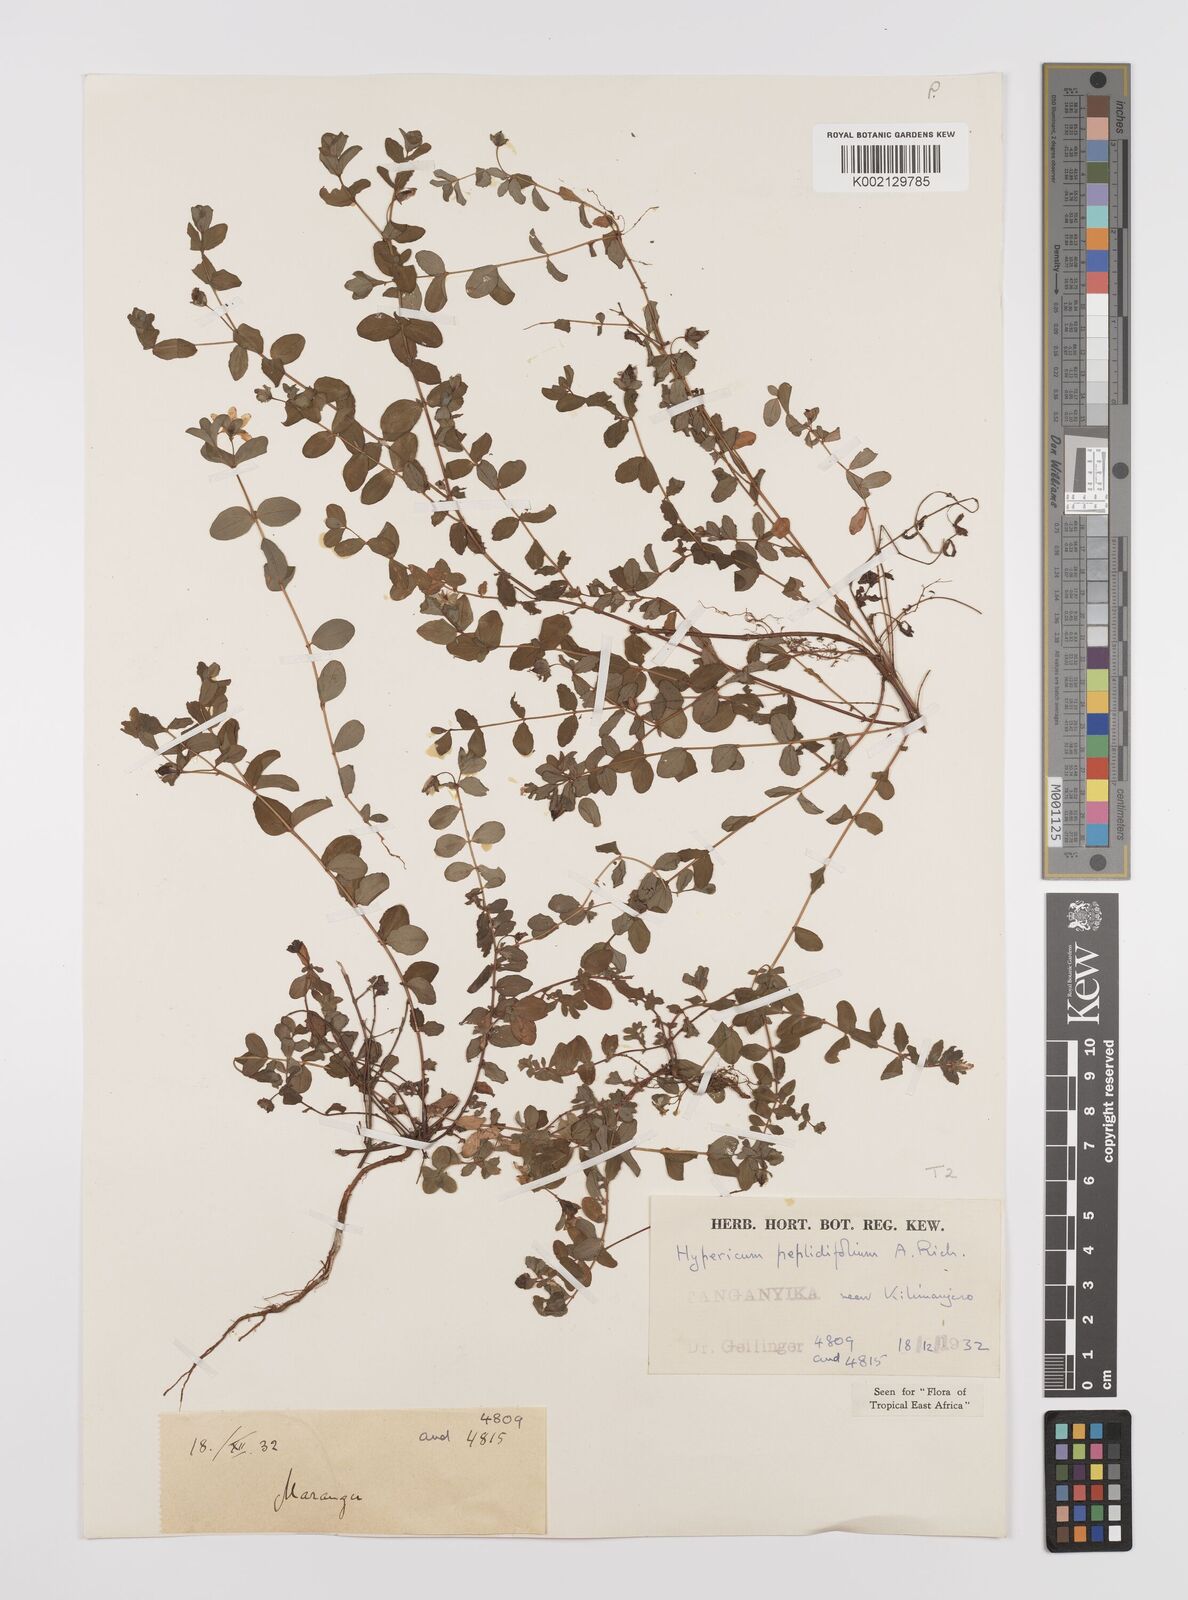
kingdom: Plantae
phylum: Tracheophyta
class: Magnoliopsida
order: Malpighiales
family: Hypericaceae
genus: Hypericum
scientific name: Hypericum peplidifolium
